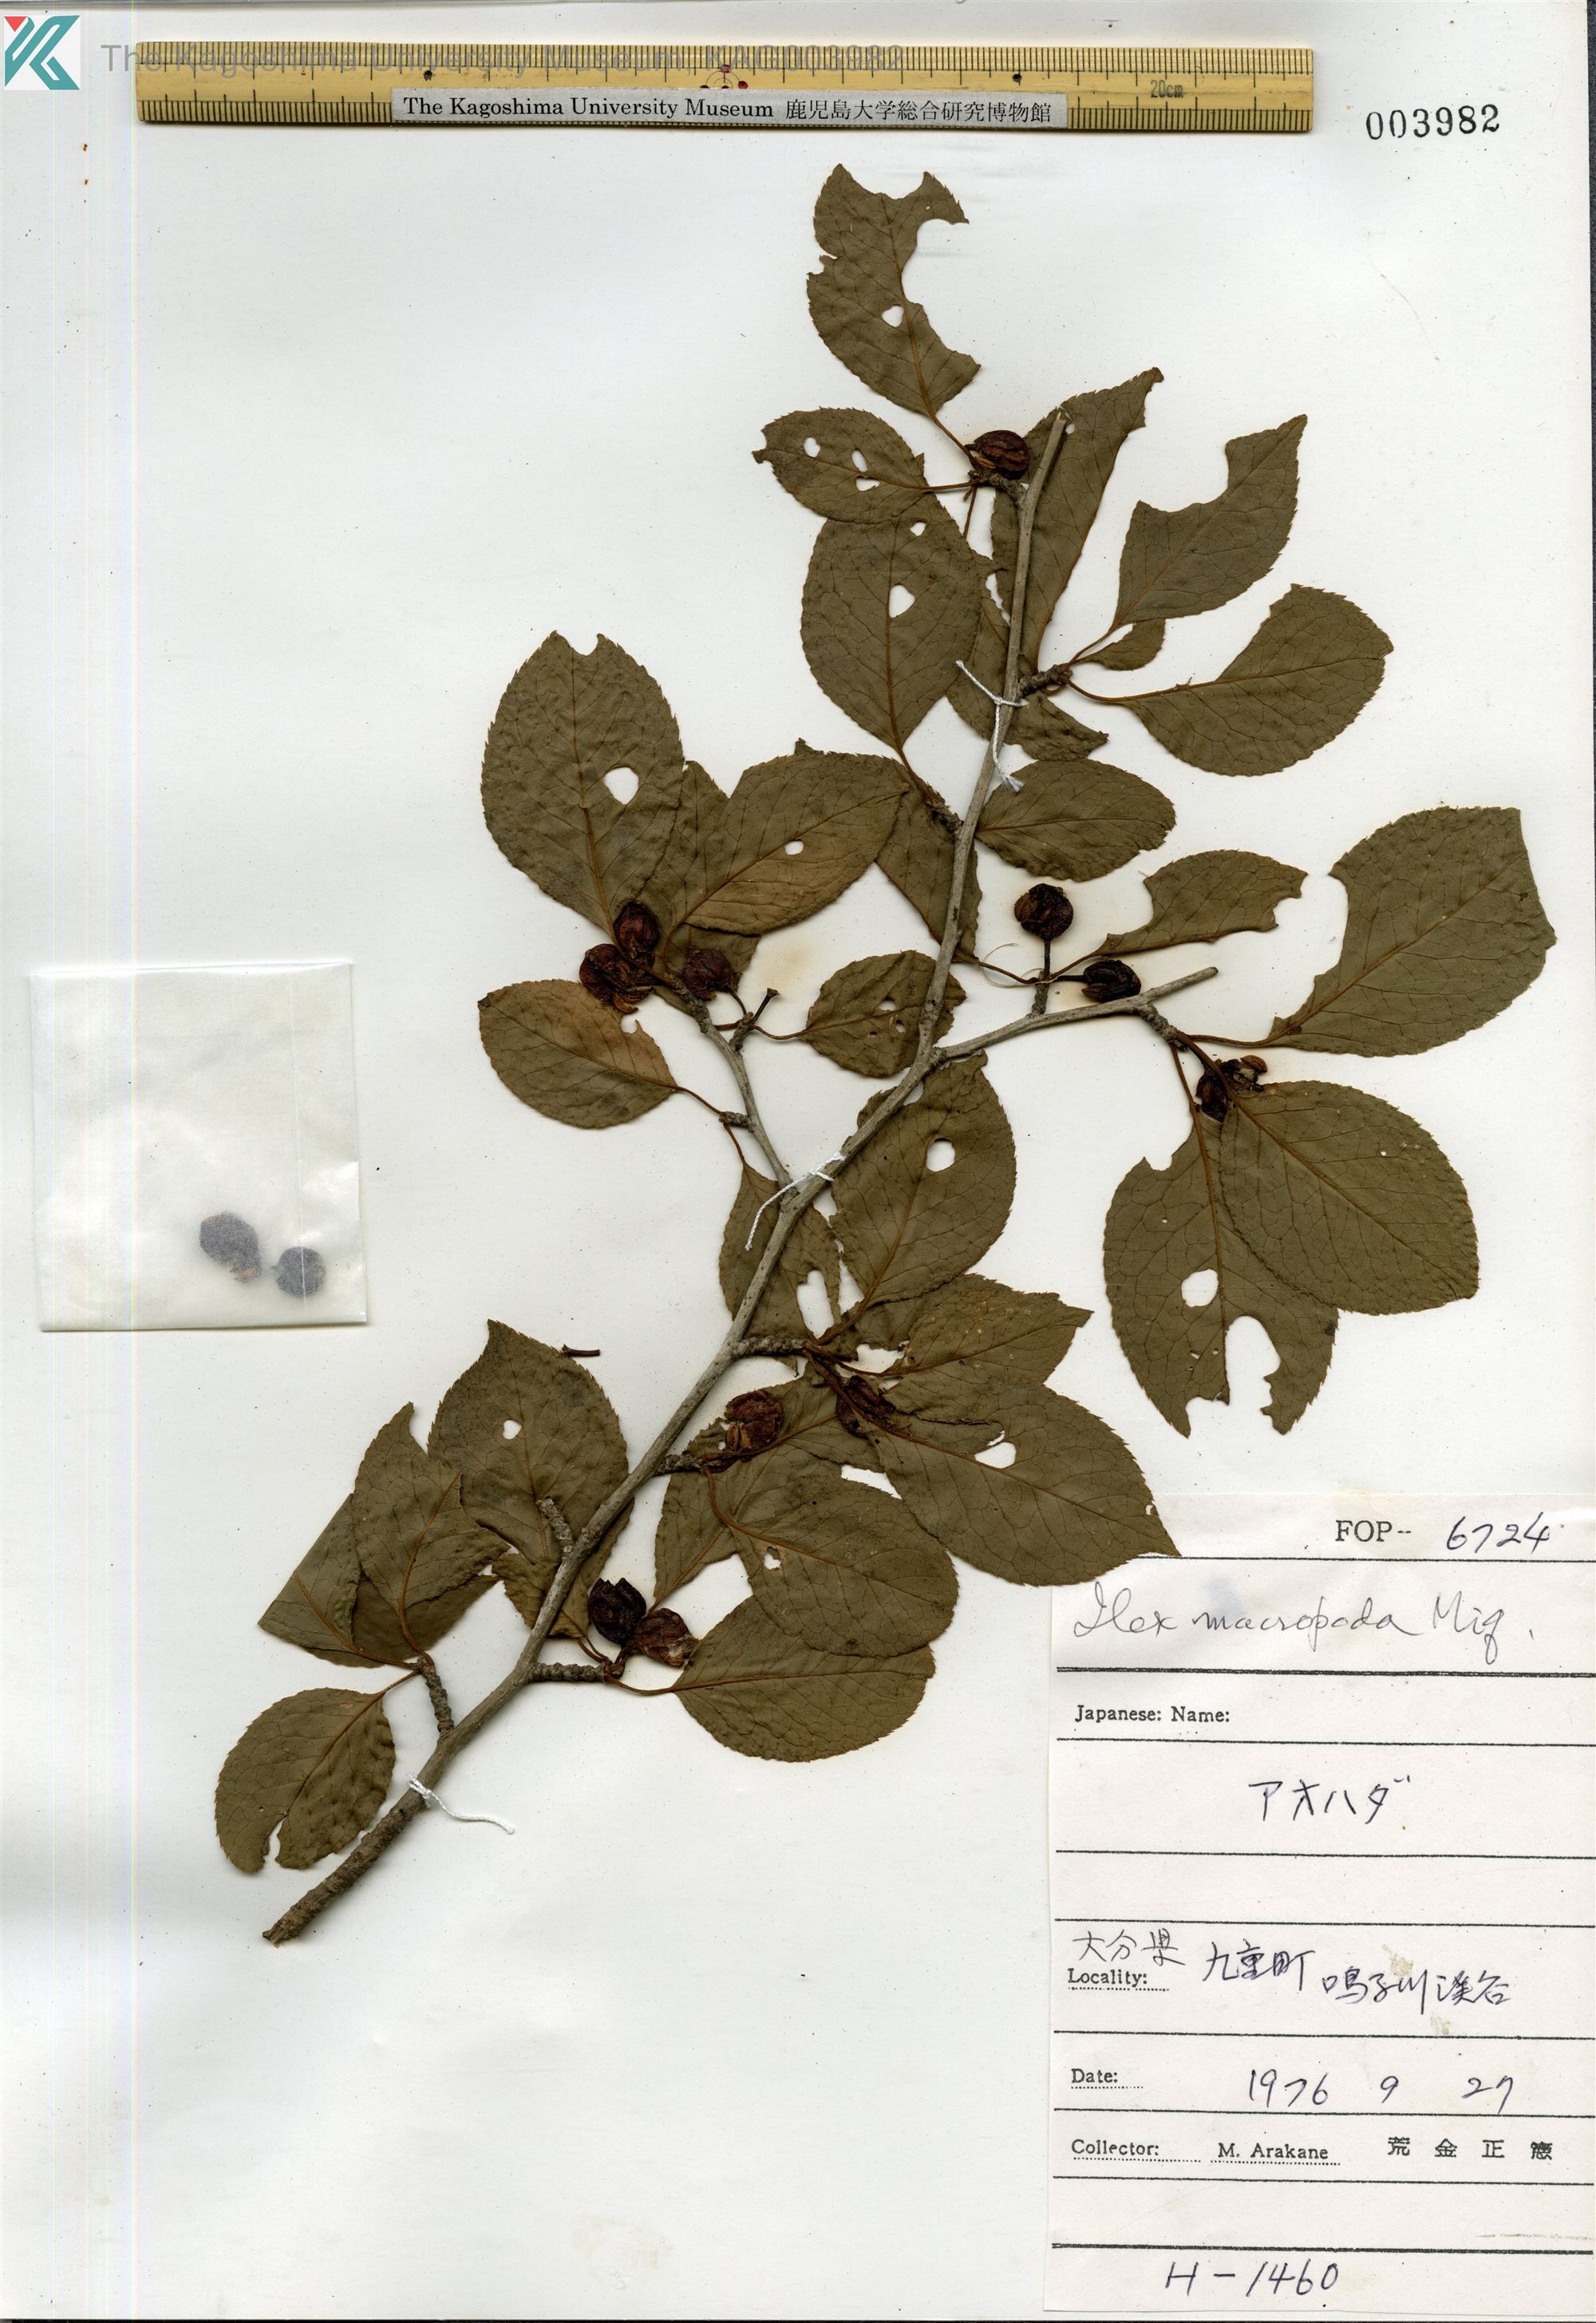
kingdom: Plantae
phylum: Tracheophyta
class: Magnoliopsida
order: Aquifoliales
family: Aquifoliaceae
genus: Ilex
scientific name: Ilex macropoda
